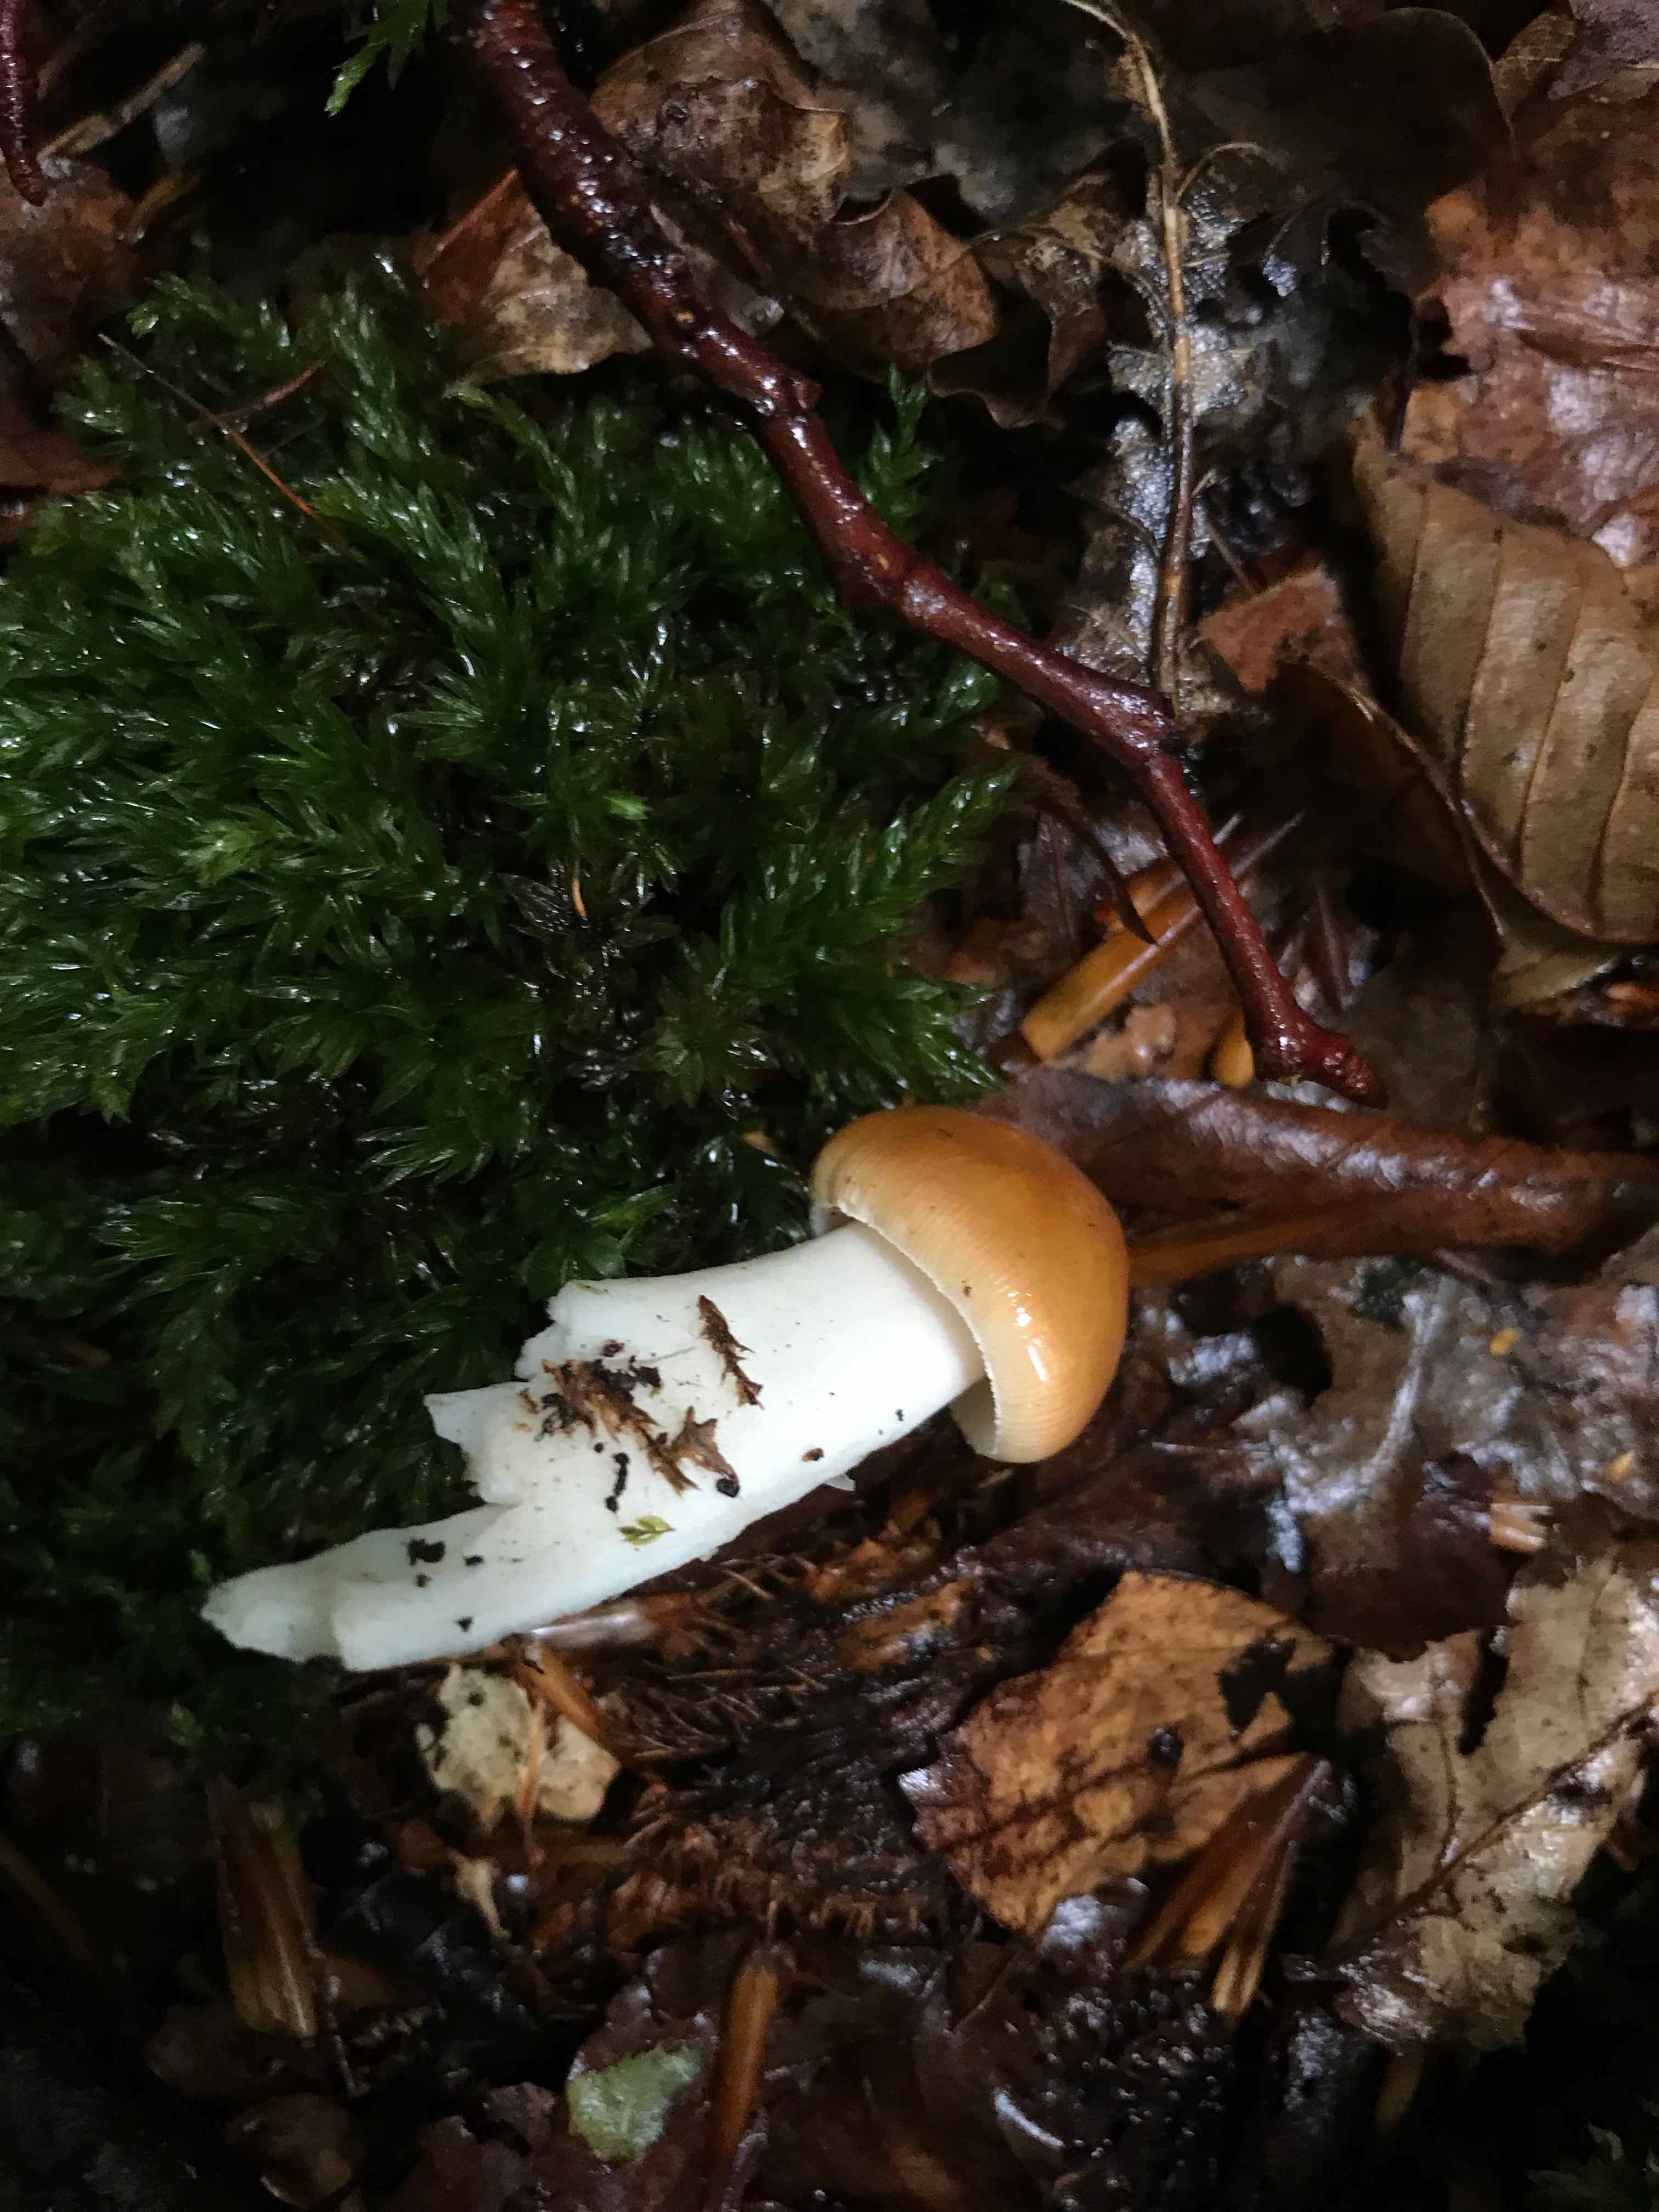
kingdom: Fungi
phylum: Basidiomycota
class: Agaricomycetes
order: Agaricales
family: Amanitaceae
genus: Amanita
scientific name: Amanita fulva
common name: brun kam-fluesvamp
